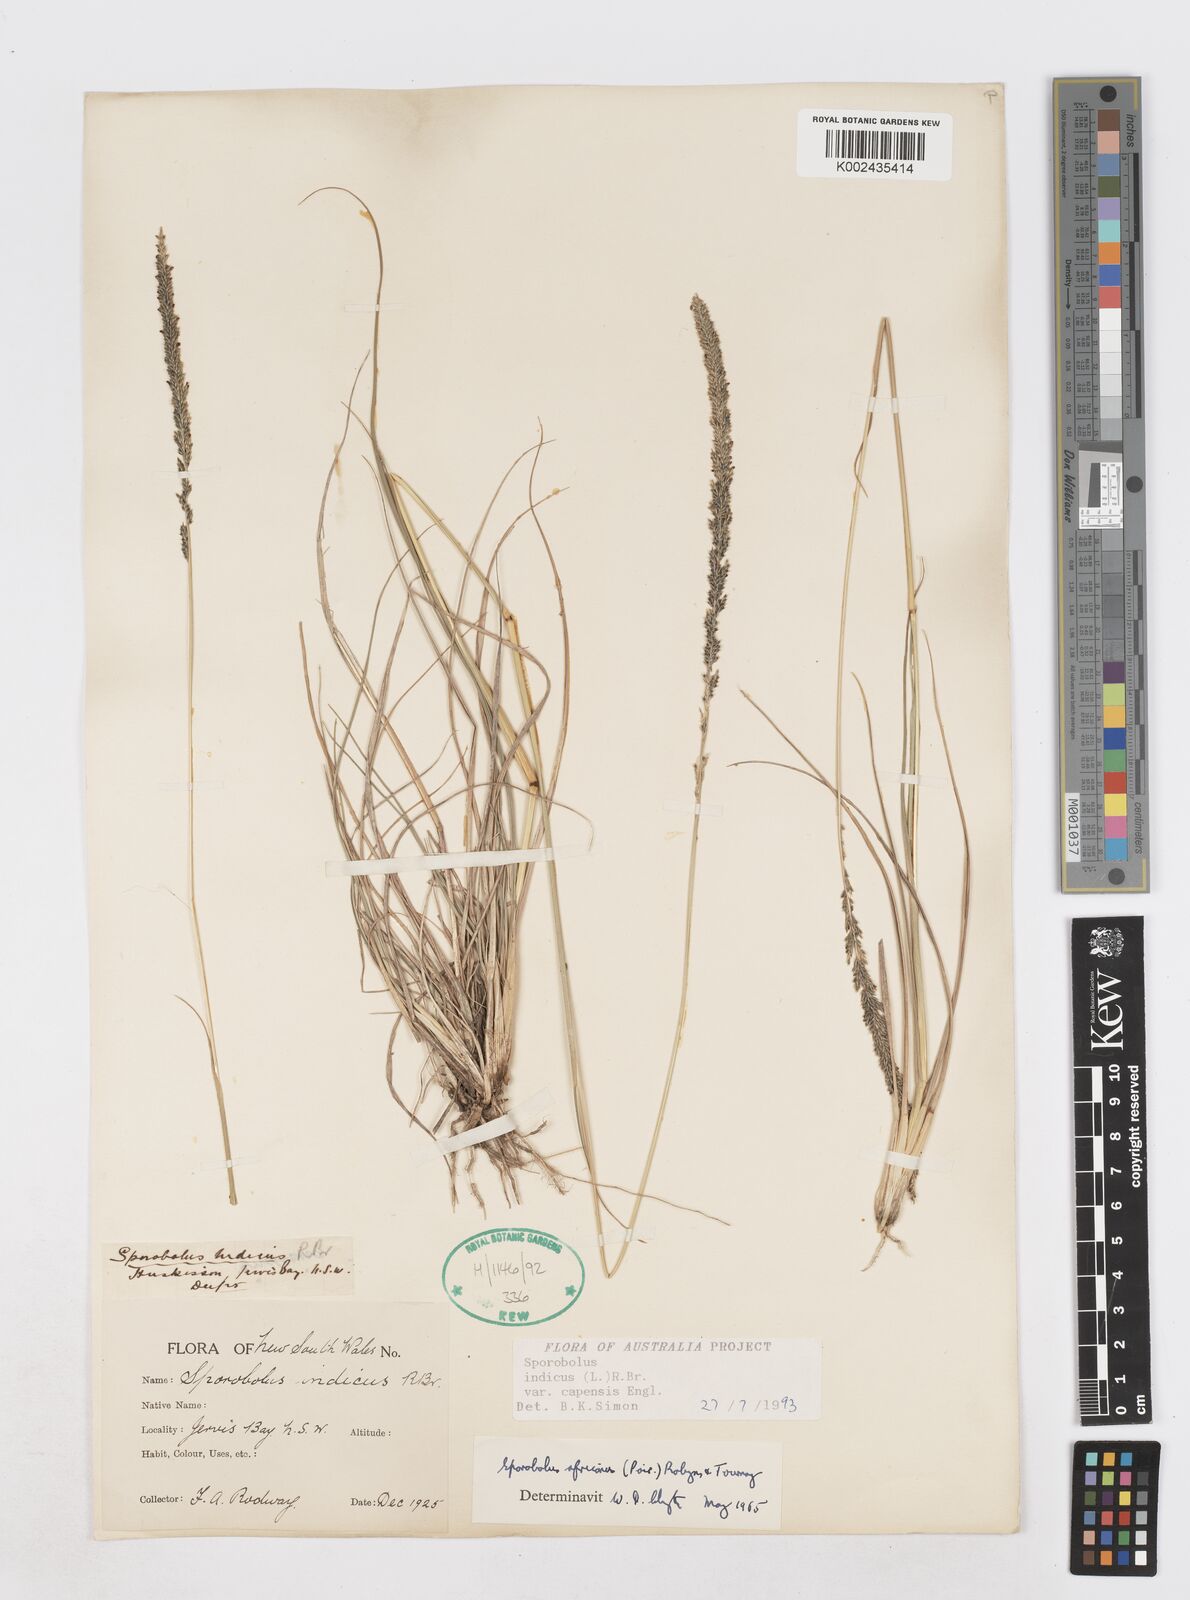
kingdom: Plantae
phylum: Tracheophyta
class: Liliopsida
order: Poales
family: Poaceae
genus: Sporobolus
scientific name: Sporobolus africanus
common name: African dropseed
